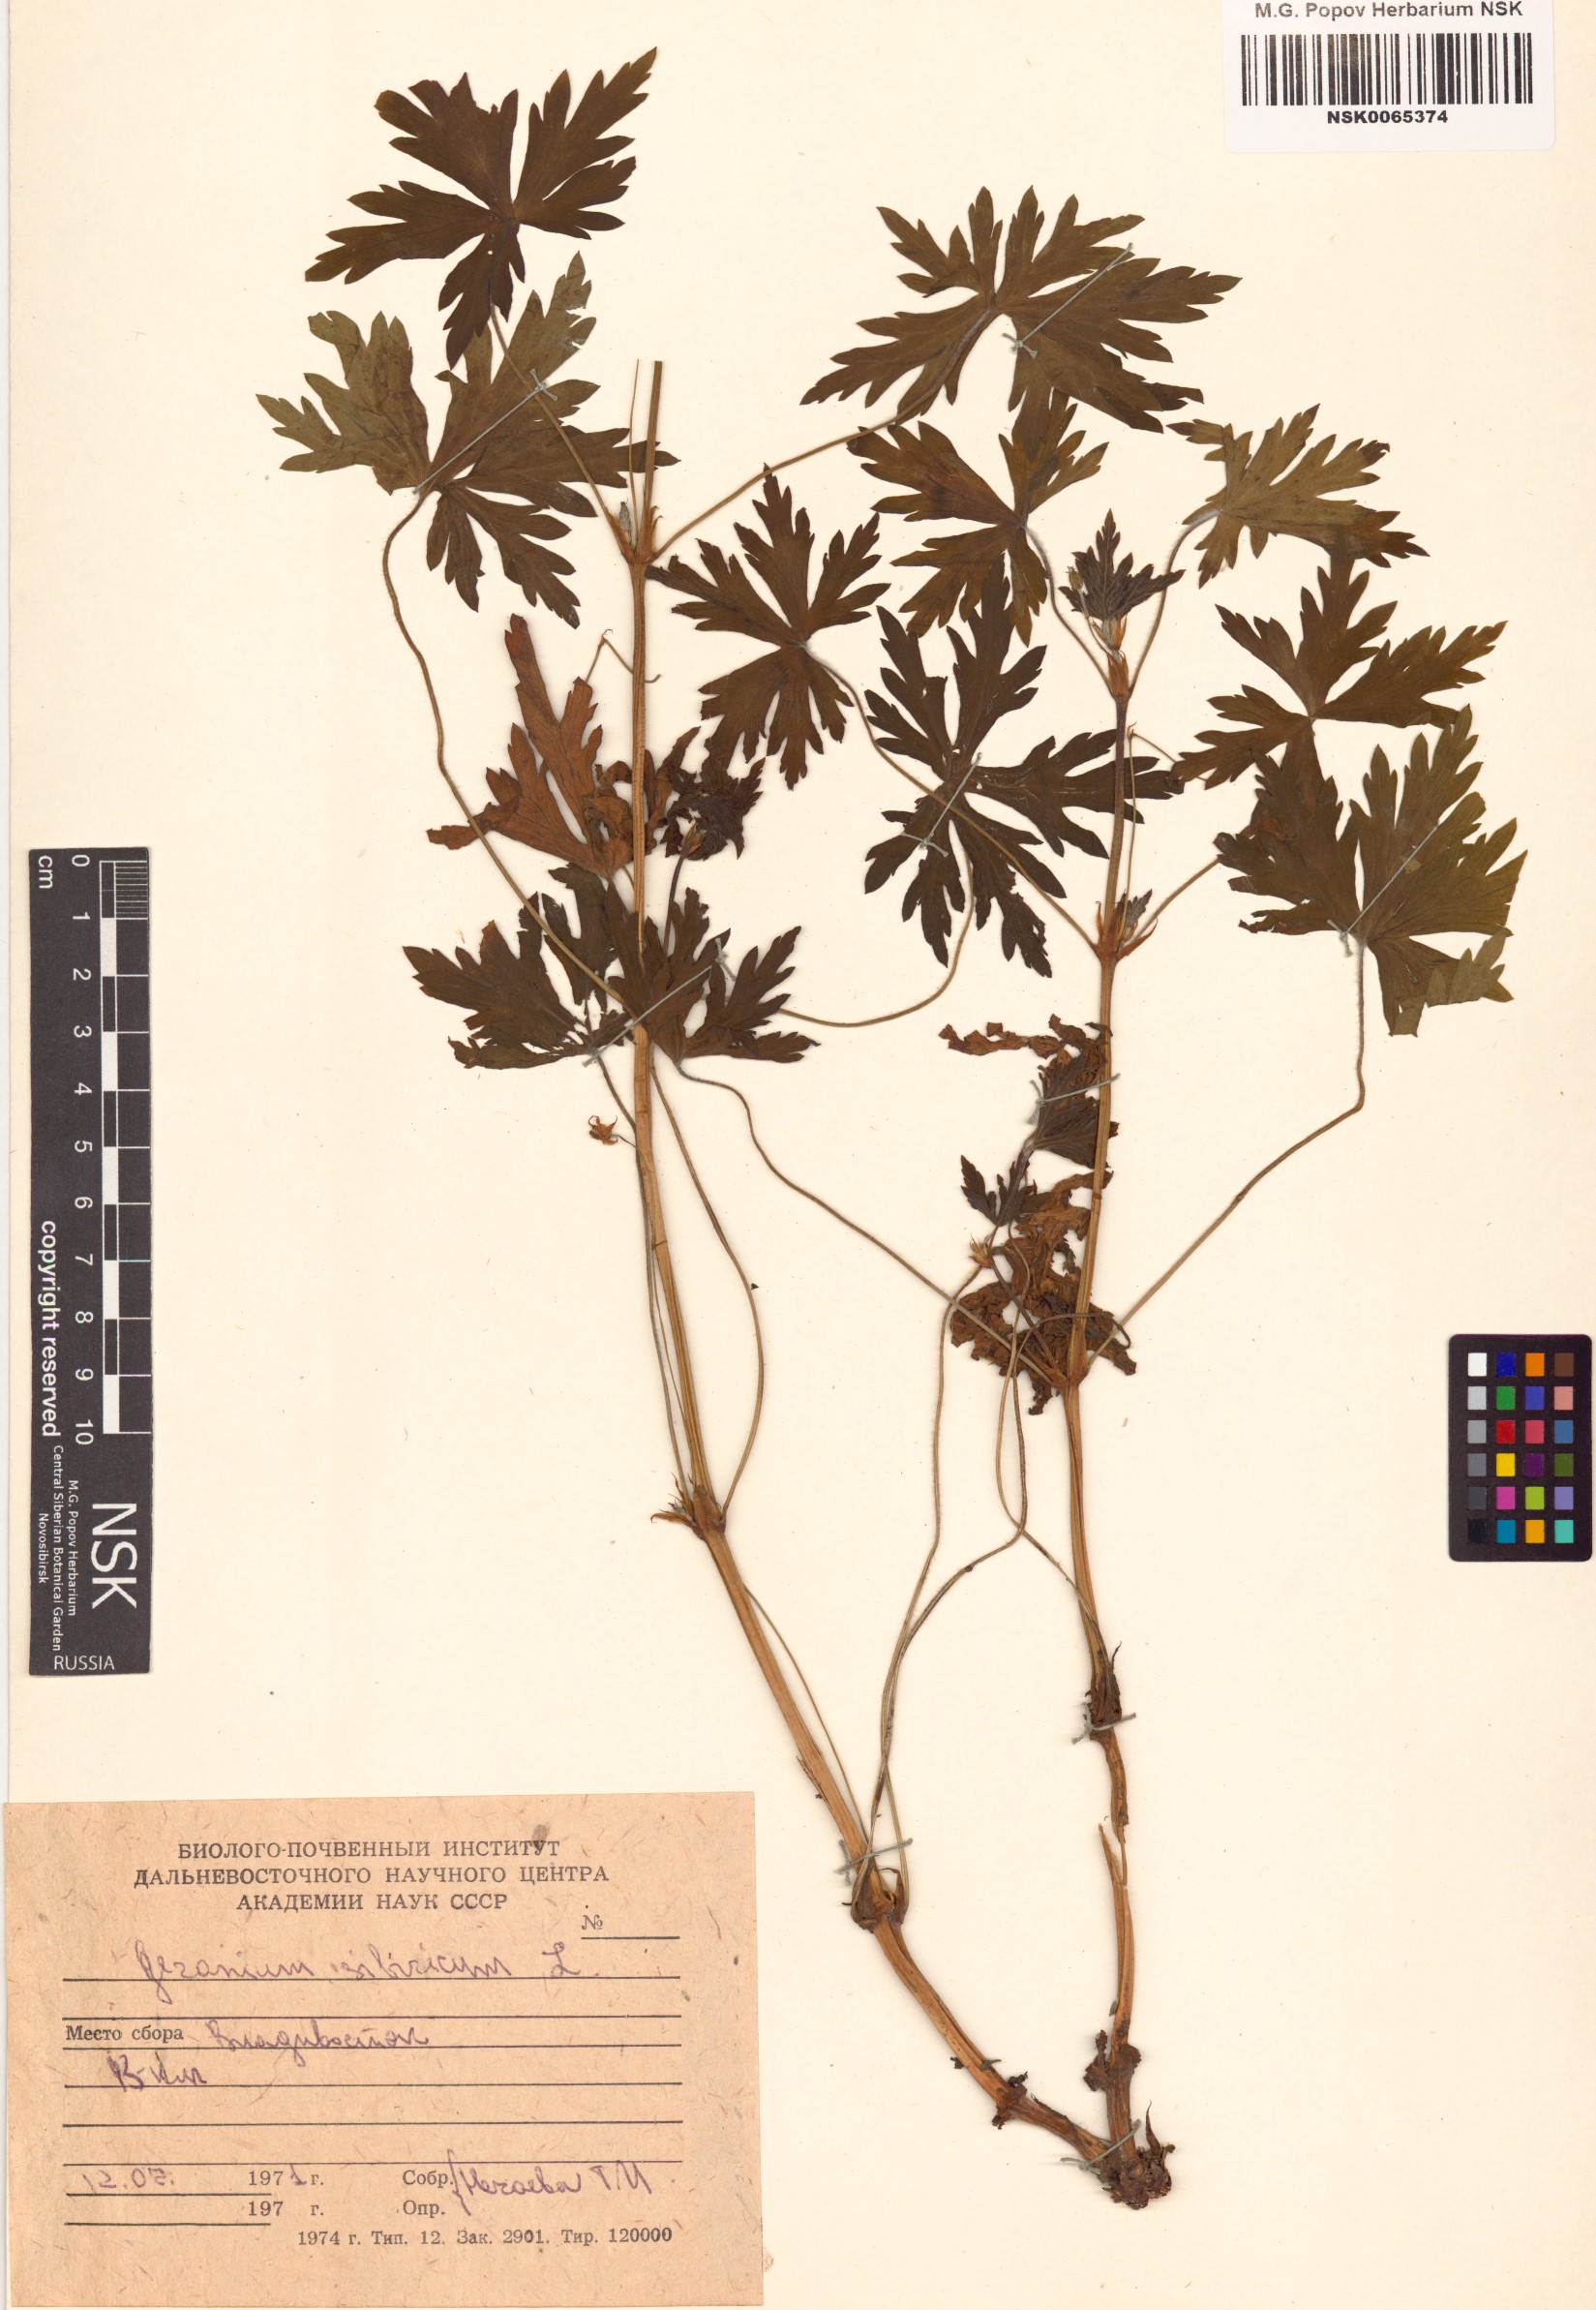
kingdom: Plantae
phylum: Tracheophyta
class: Magnoliopsida
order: Geraniales
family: Geraniaceae
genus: Geranium
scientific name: Geranium sibiricum
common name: Siberian crane's-bill
